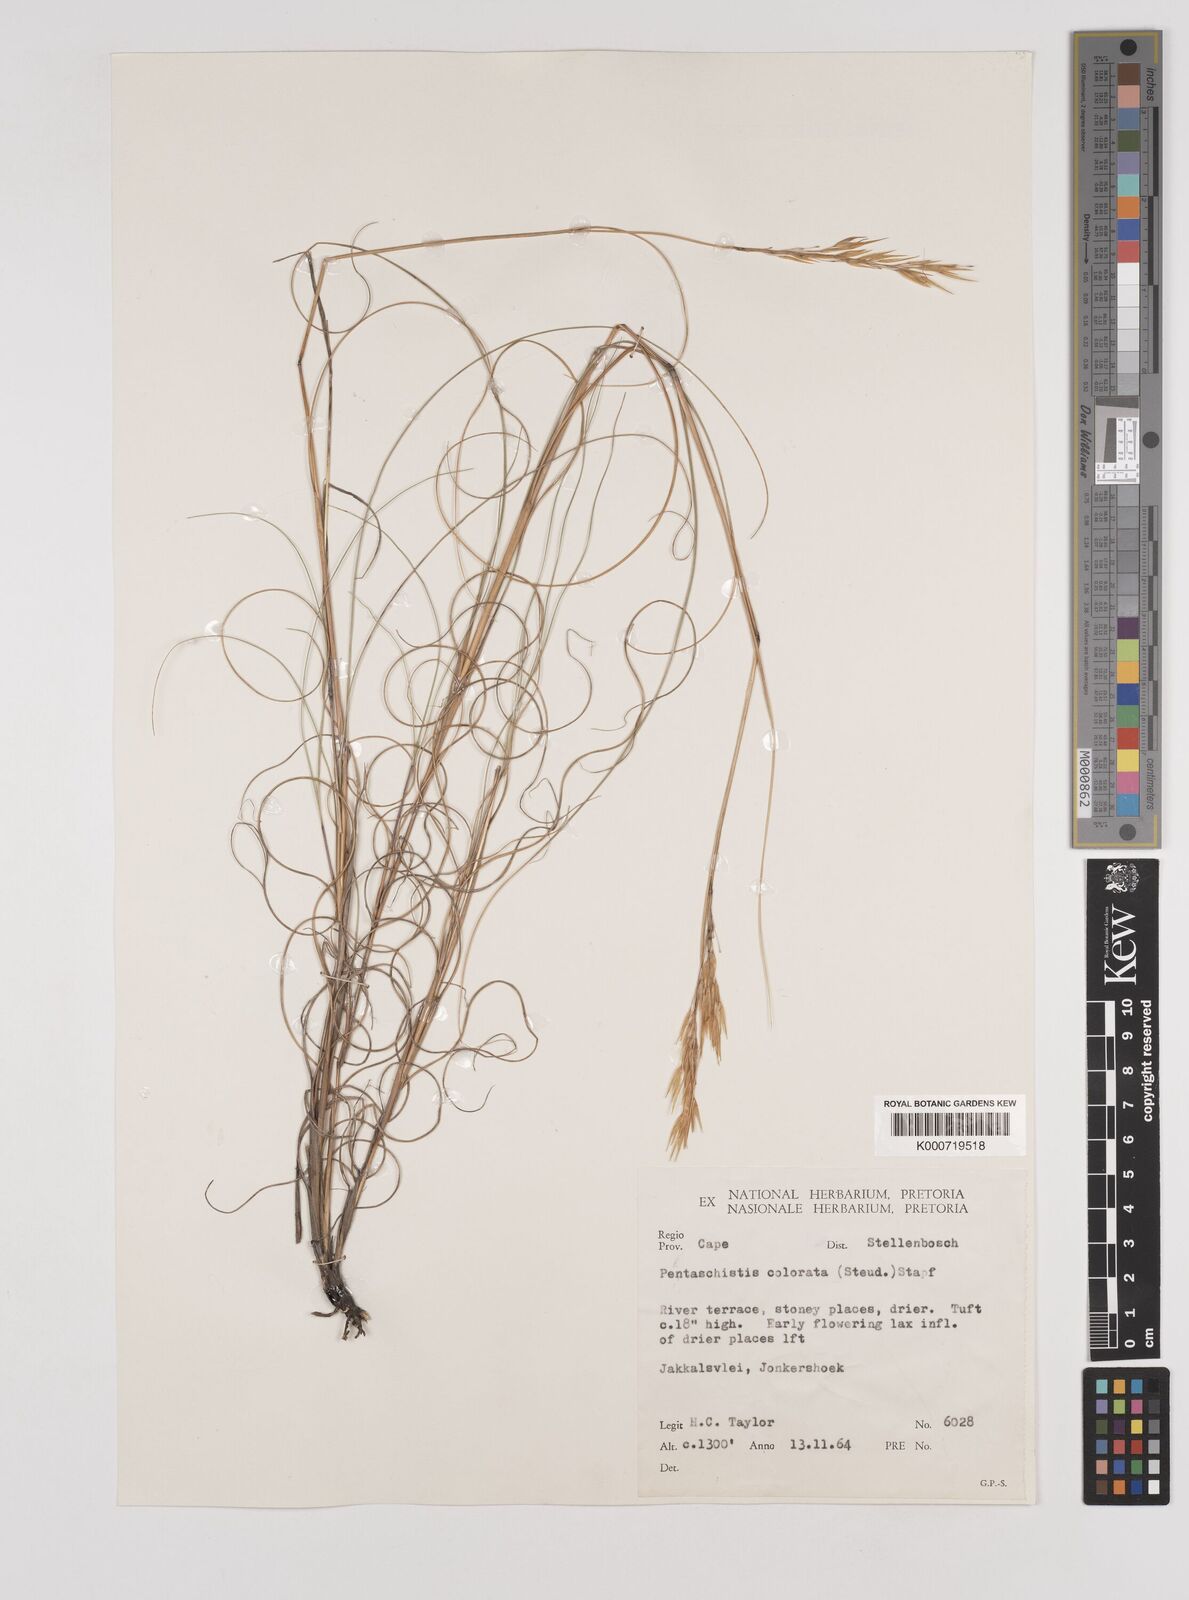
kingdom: Plantae
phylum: Tracheophyta
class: Liliopsida
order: Poales
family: Poaceae
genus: Pentameris
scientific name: Pentameris colorata
